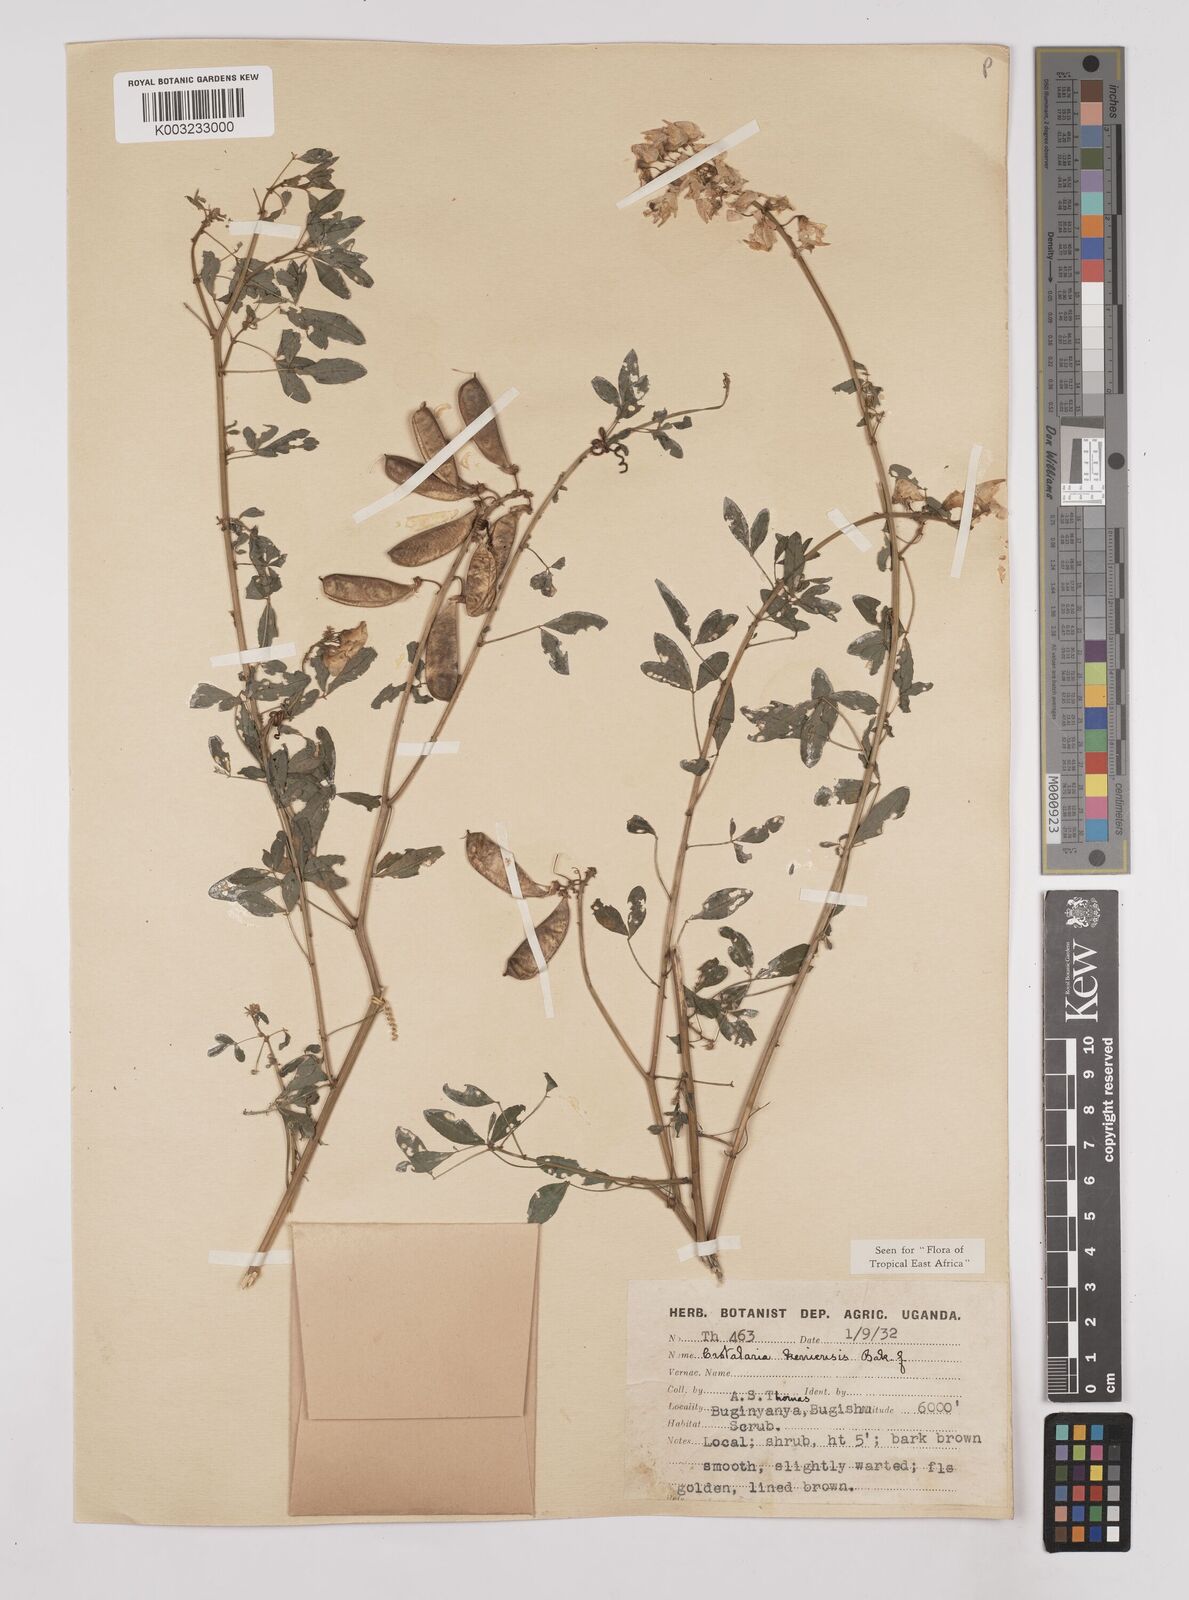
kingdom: Plantae
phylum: Tracheophyta
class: Magnoliopsida
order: Fabales
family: Fabaceae
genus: Crotalaria
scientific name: Crotalaria keniensis
